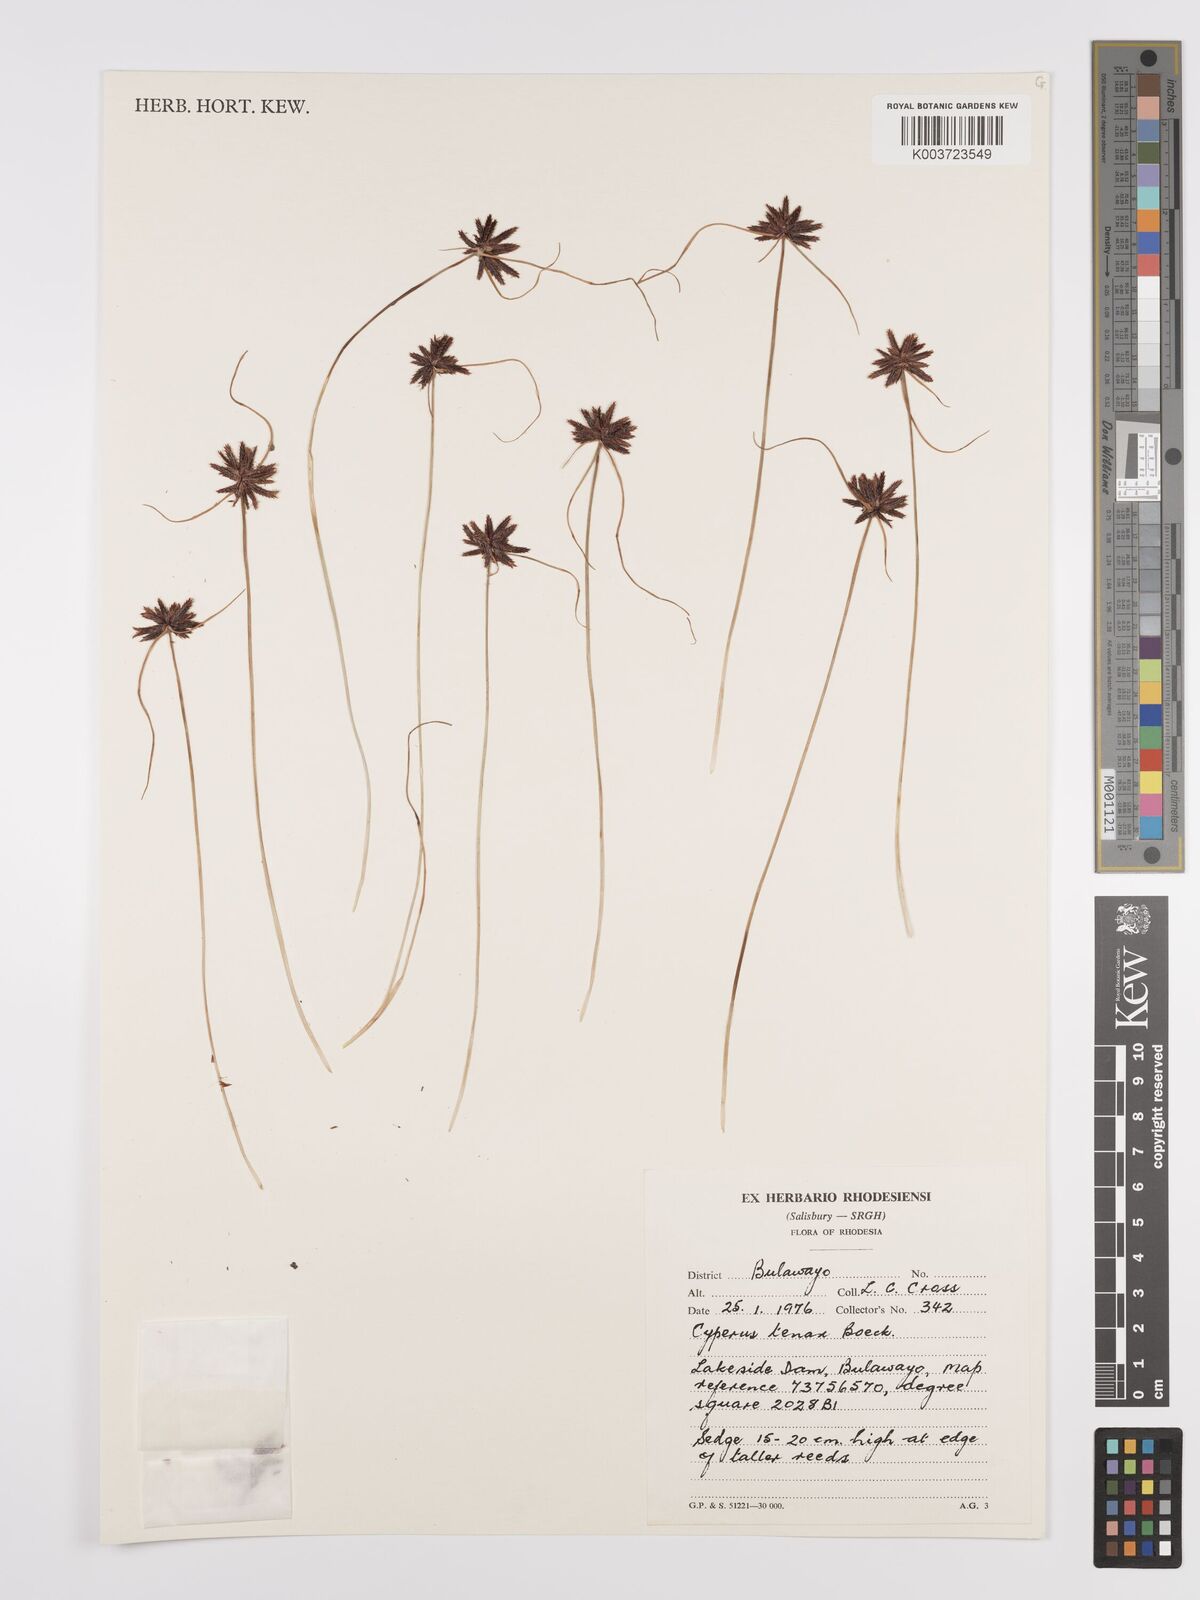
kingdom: Plantae
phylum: Tracheophyta
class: Liliopsida
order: Poales
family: Cyperaceae
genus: Cyperus
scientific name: Cyperus tenax
